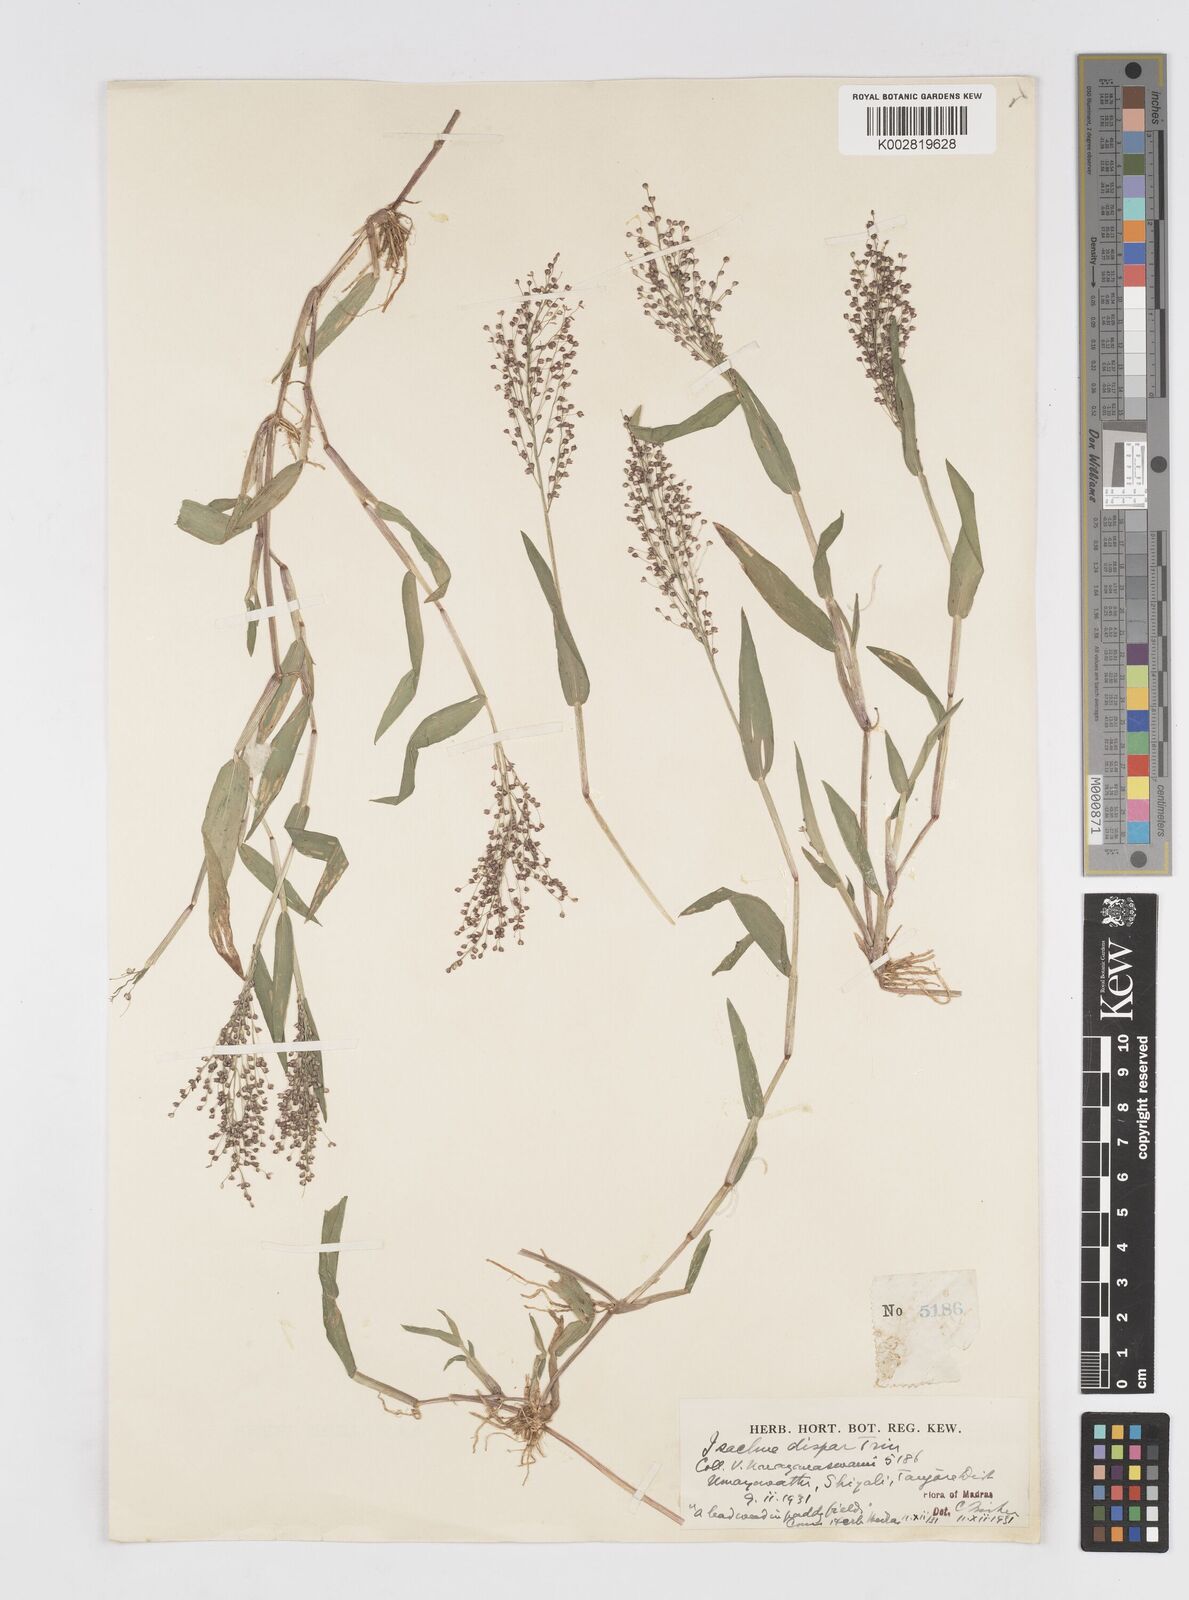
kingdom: Plantae
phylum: Tracheophyta
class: Liliopsida
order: Poales
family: Poaceae
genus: Isachne
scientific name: Isachne globosa
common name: Swamp millet
